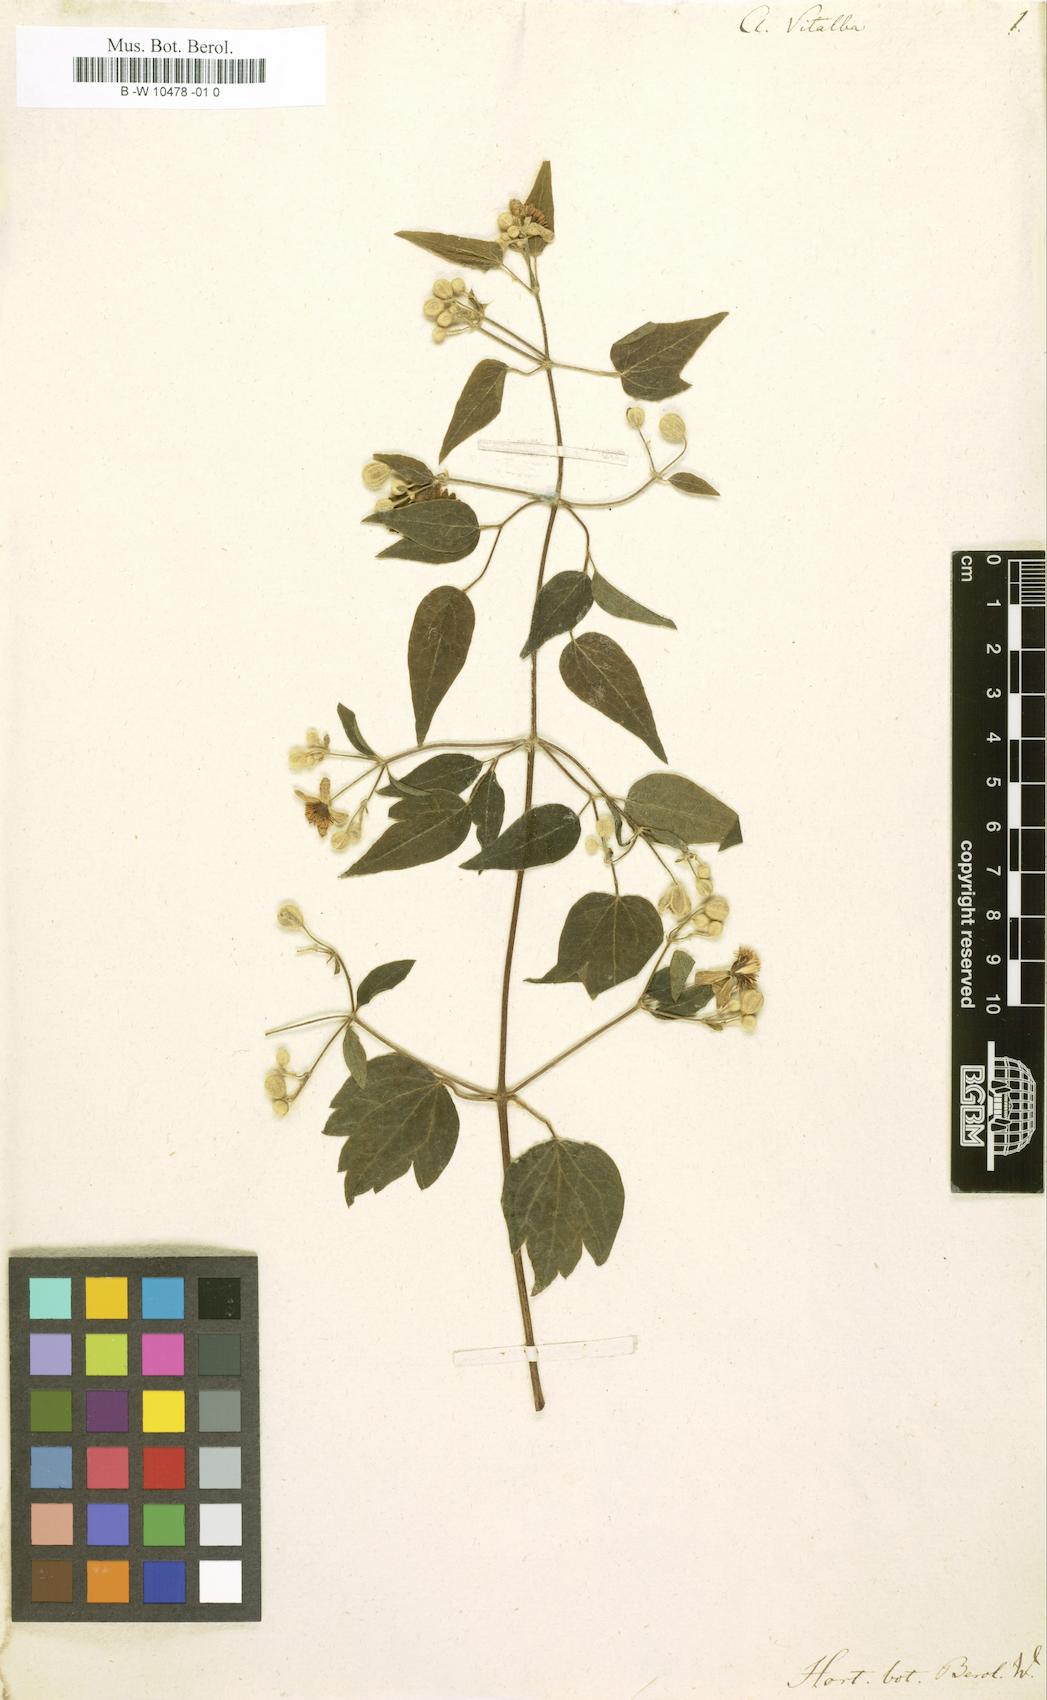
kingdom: Plantae
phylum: Tracheophyta
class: Magnoliopsida
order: Ranunculales
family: Ranunculaceae
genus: Clematis
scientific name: Clematis vitalba
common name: Evergreen clematis
